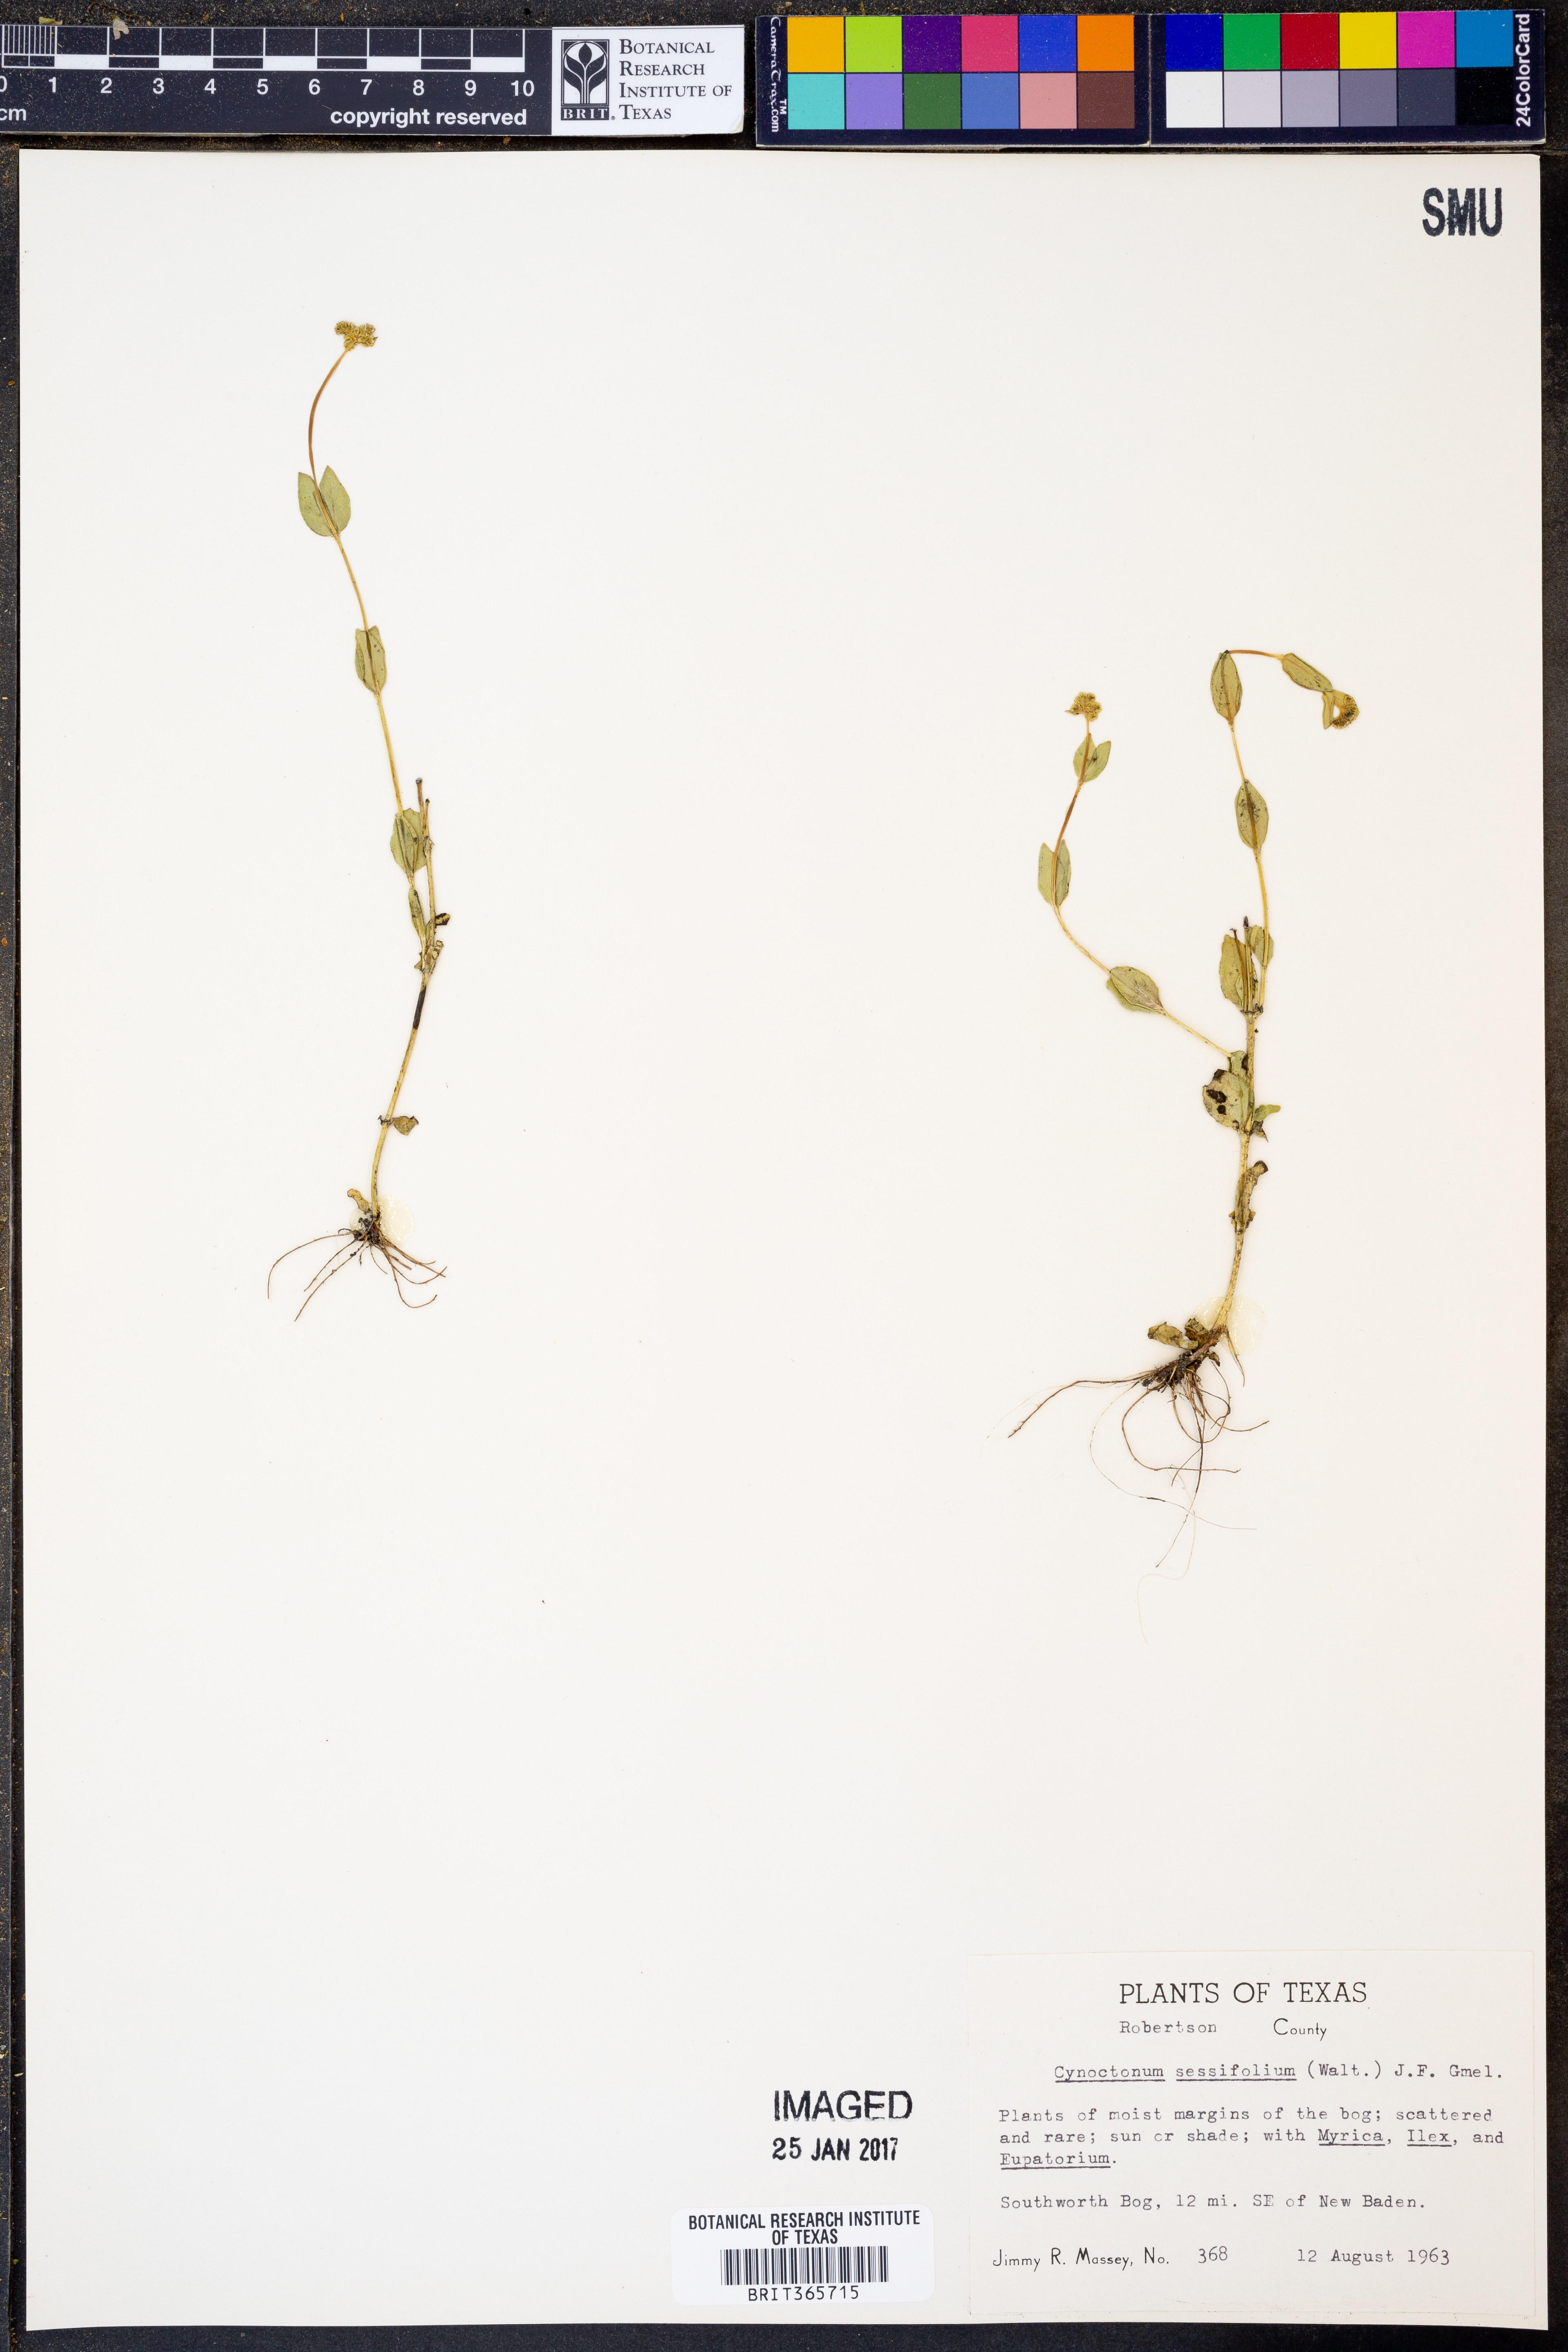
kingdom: Plantae
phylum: Tracheophyta
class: Magnoliopsida
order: Gentianales
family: Loganiaceae
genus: Mitreola
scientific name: Mitreola sessilifolia
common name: Swamp hornpod
